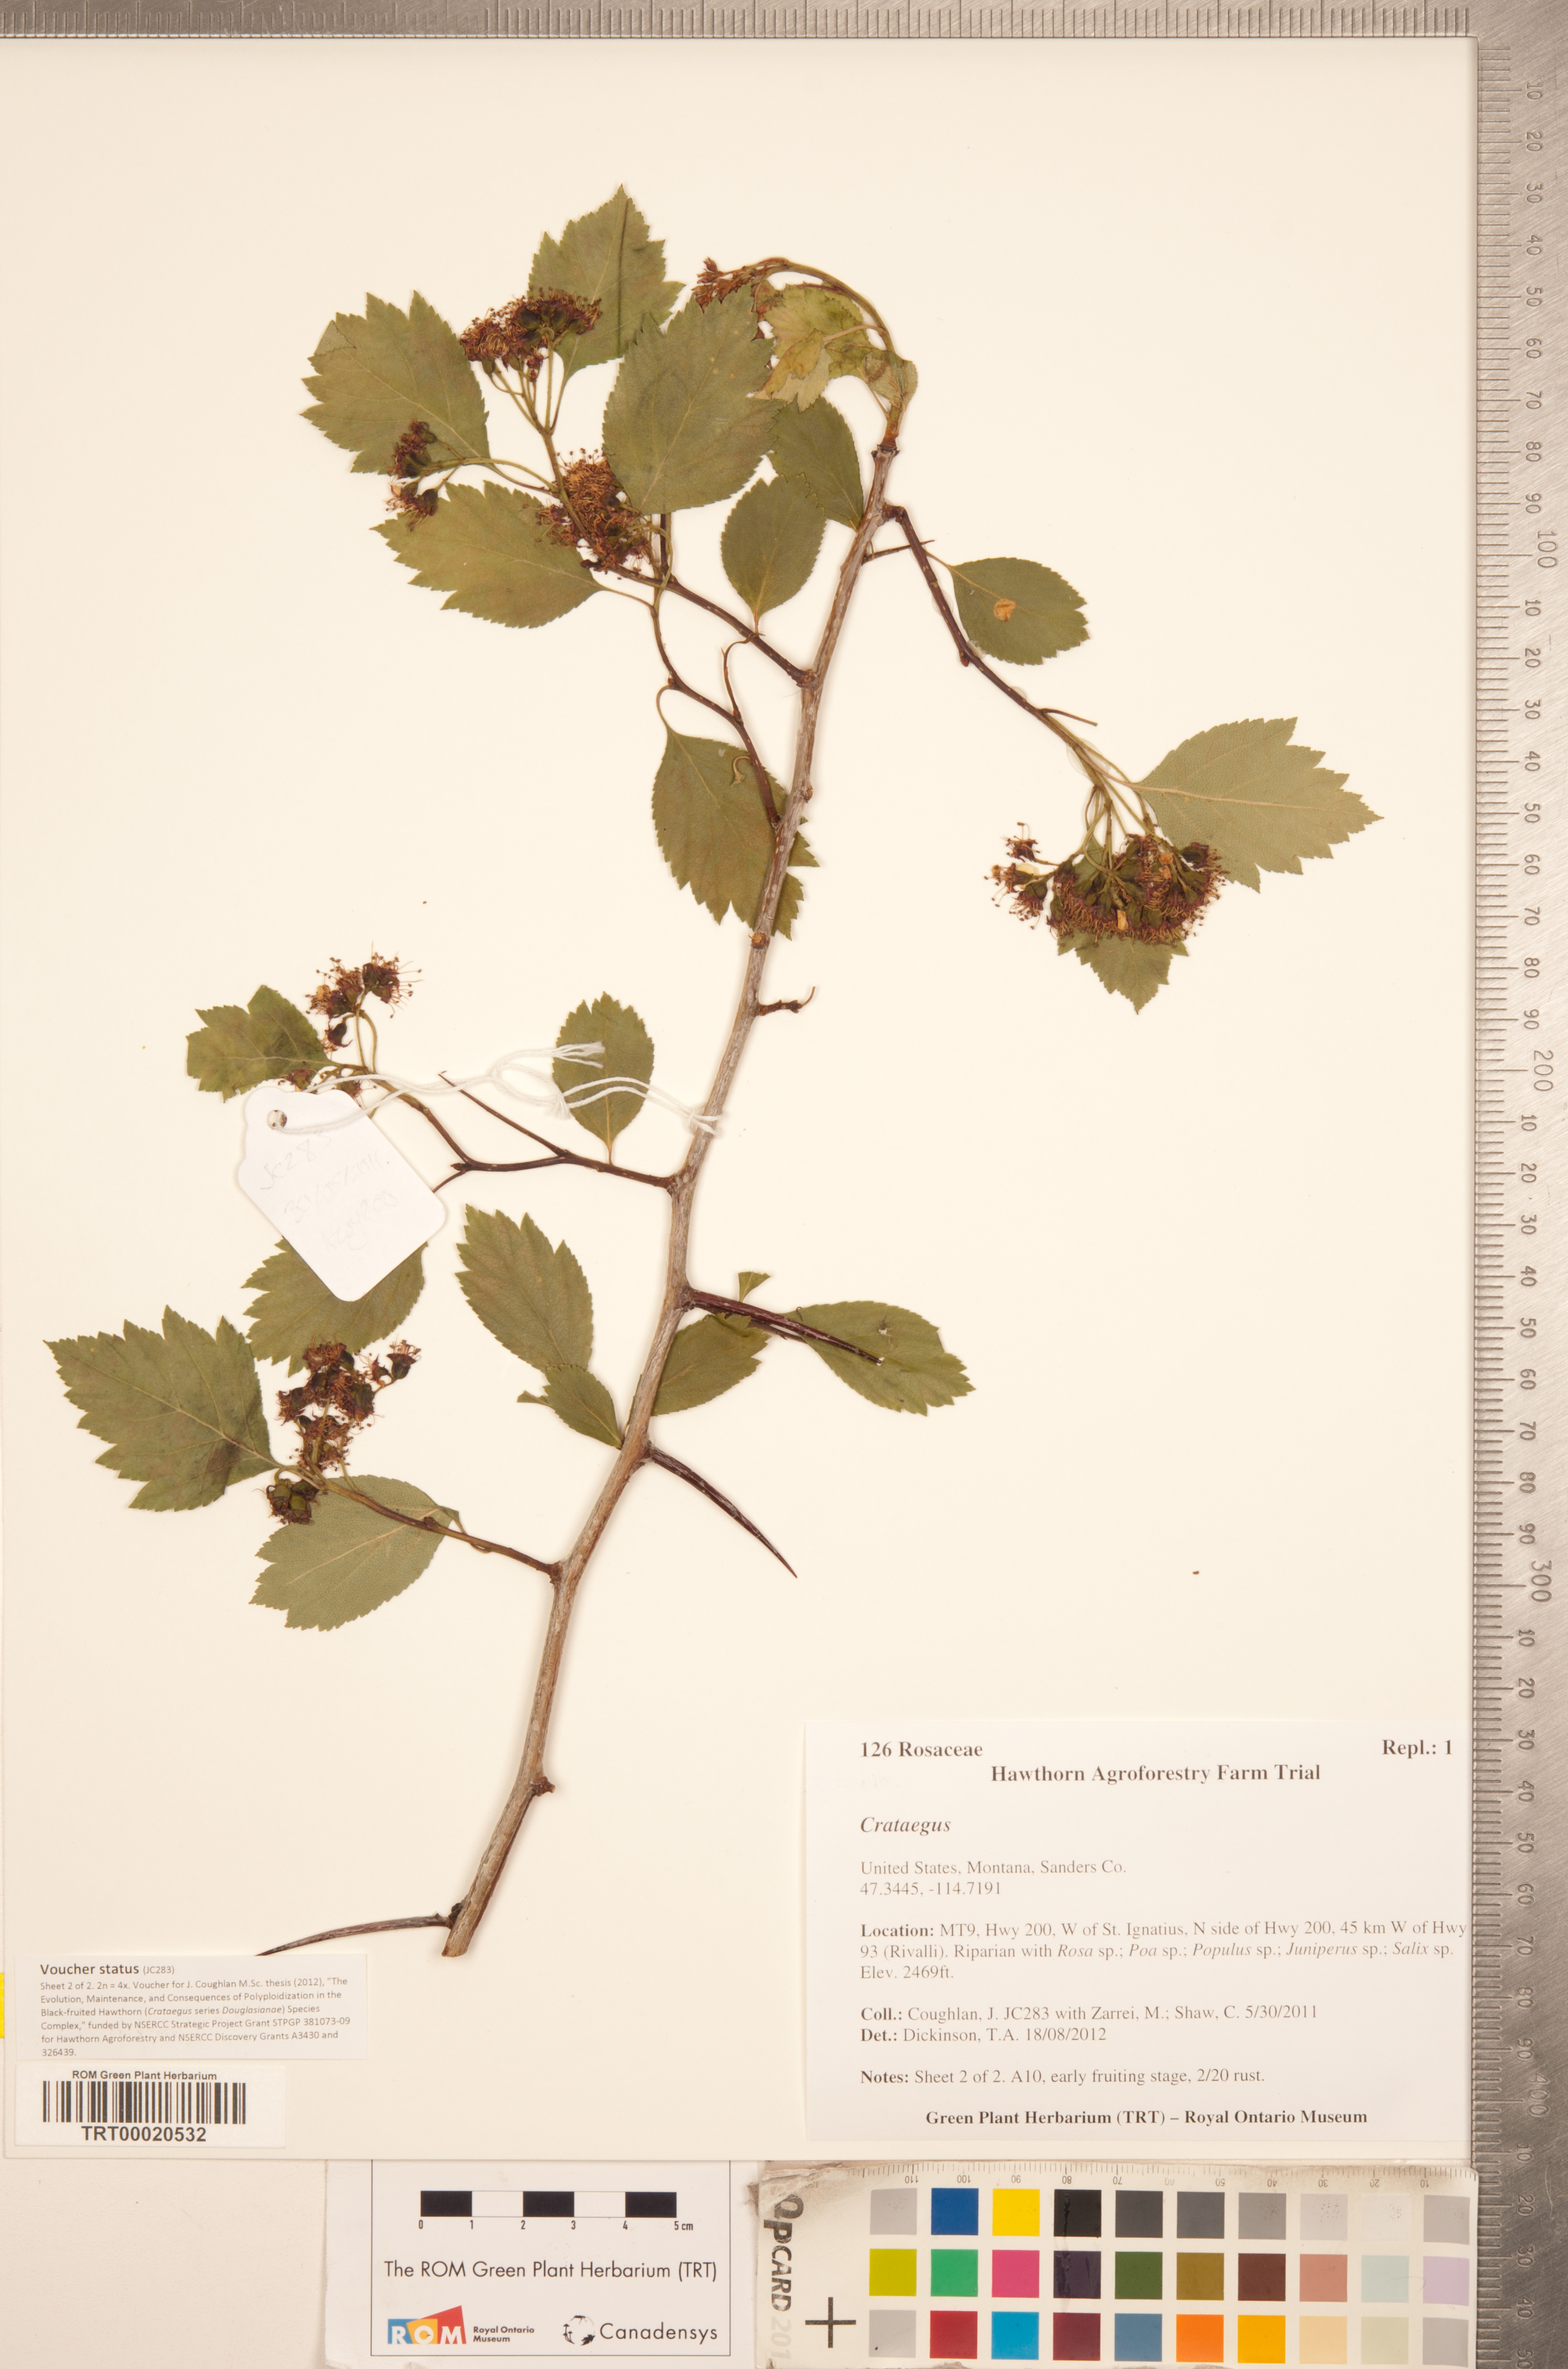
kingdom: Plantae
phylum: Tracheophyta
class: Magnoliopsida
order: Rosales
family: Rosaceae
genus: Crataegus
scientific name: Crataegus sheila-phippsiae
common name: Sheila phipps' hawthorn
